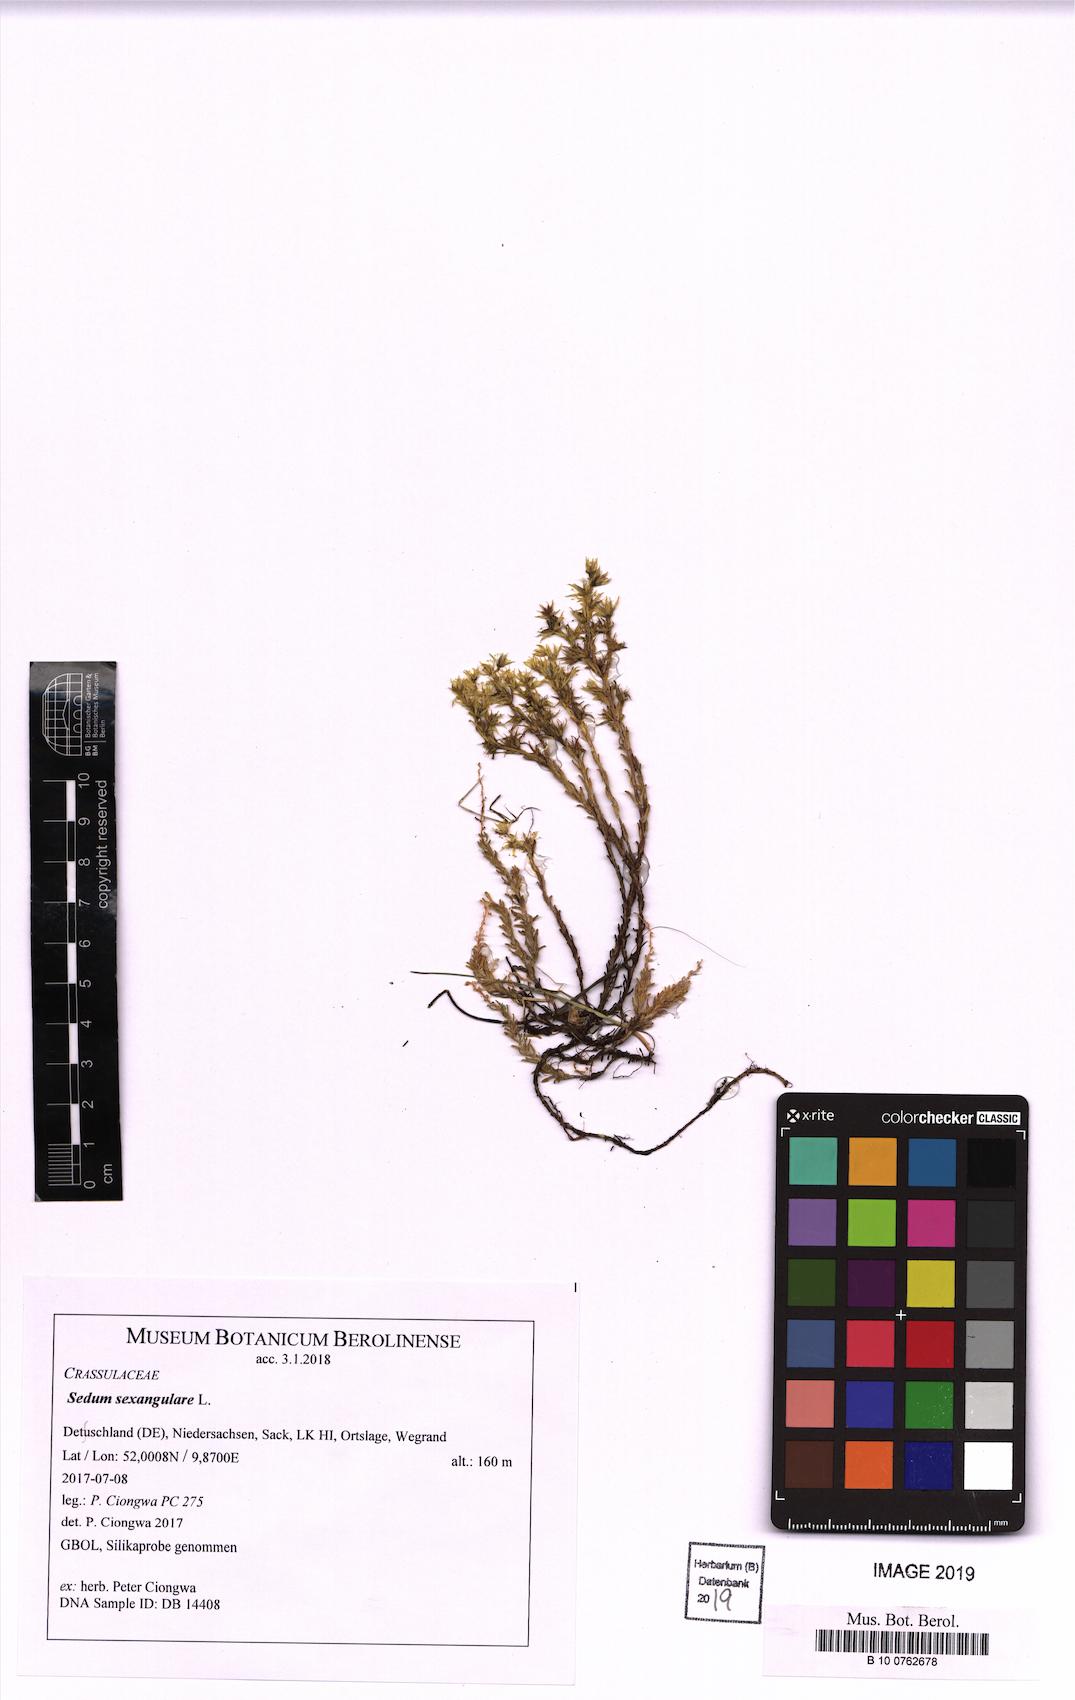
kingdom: Plantae
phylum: Tracheophyta
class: Magnoliopsida
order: Saxifragales
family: Crassulaceae
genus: Sedum
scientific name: Sedum sexangulare
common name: Tasteless stonecrop
